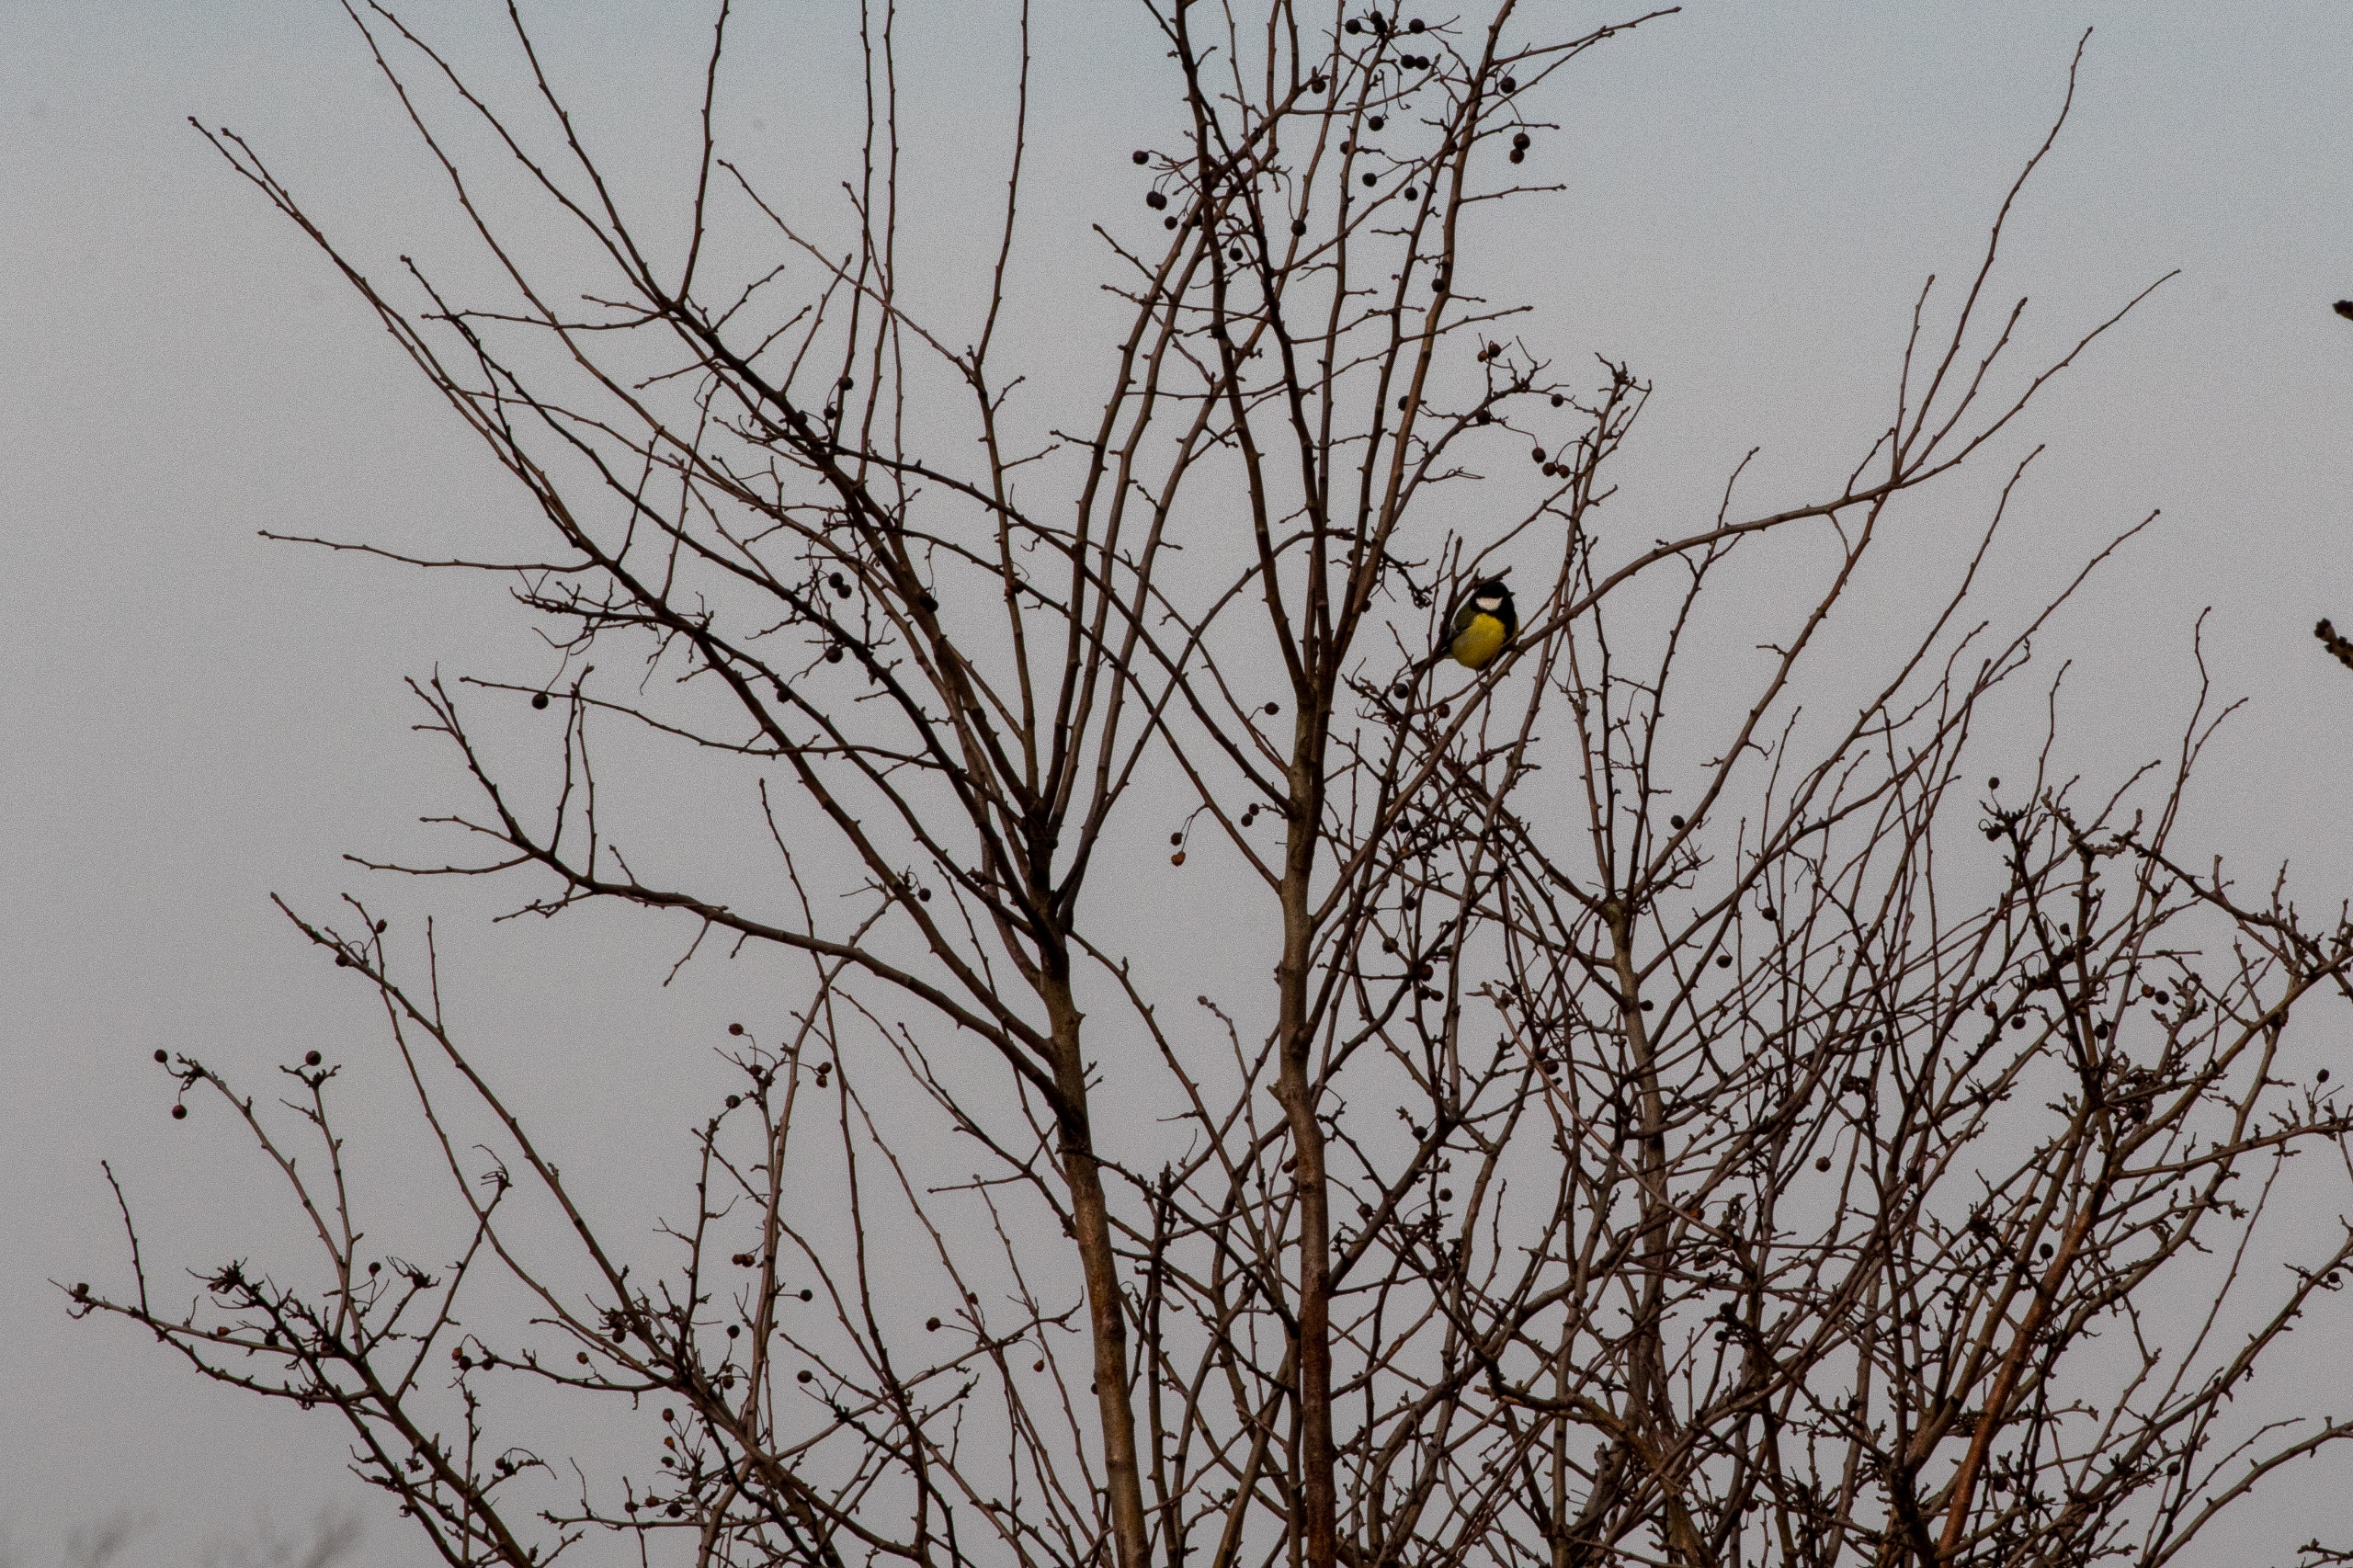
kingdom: Plantae
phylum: Tracheophyta
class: Magnoliopsida
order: Rosales
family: Rosaceae
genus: Crataegus
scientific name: Crataegus
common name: Hvidtjørnslægten
